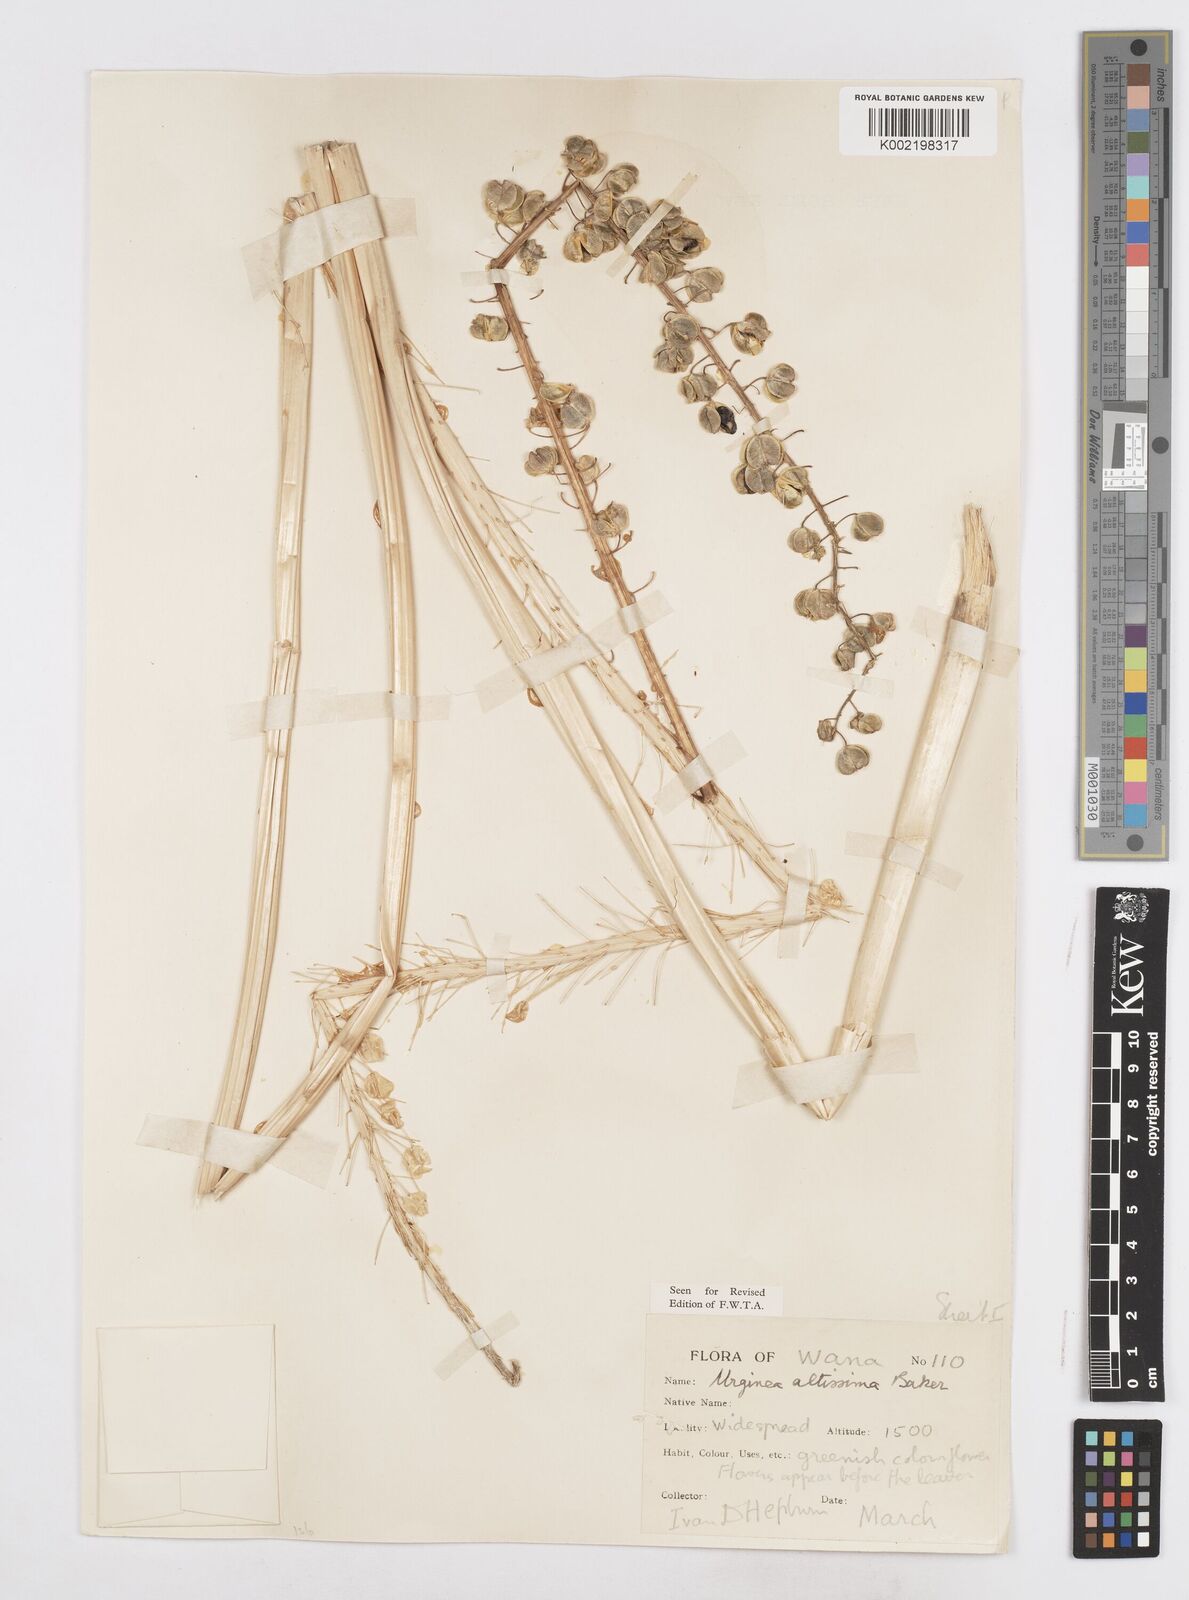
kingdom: Plantae
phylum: Tracheophyta
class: Liliopsida
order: Asparagales
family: Asparagaceae
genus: Drimia
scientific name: Drimia altissima
